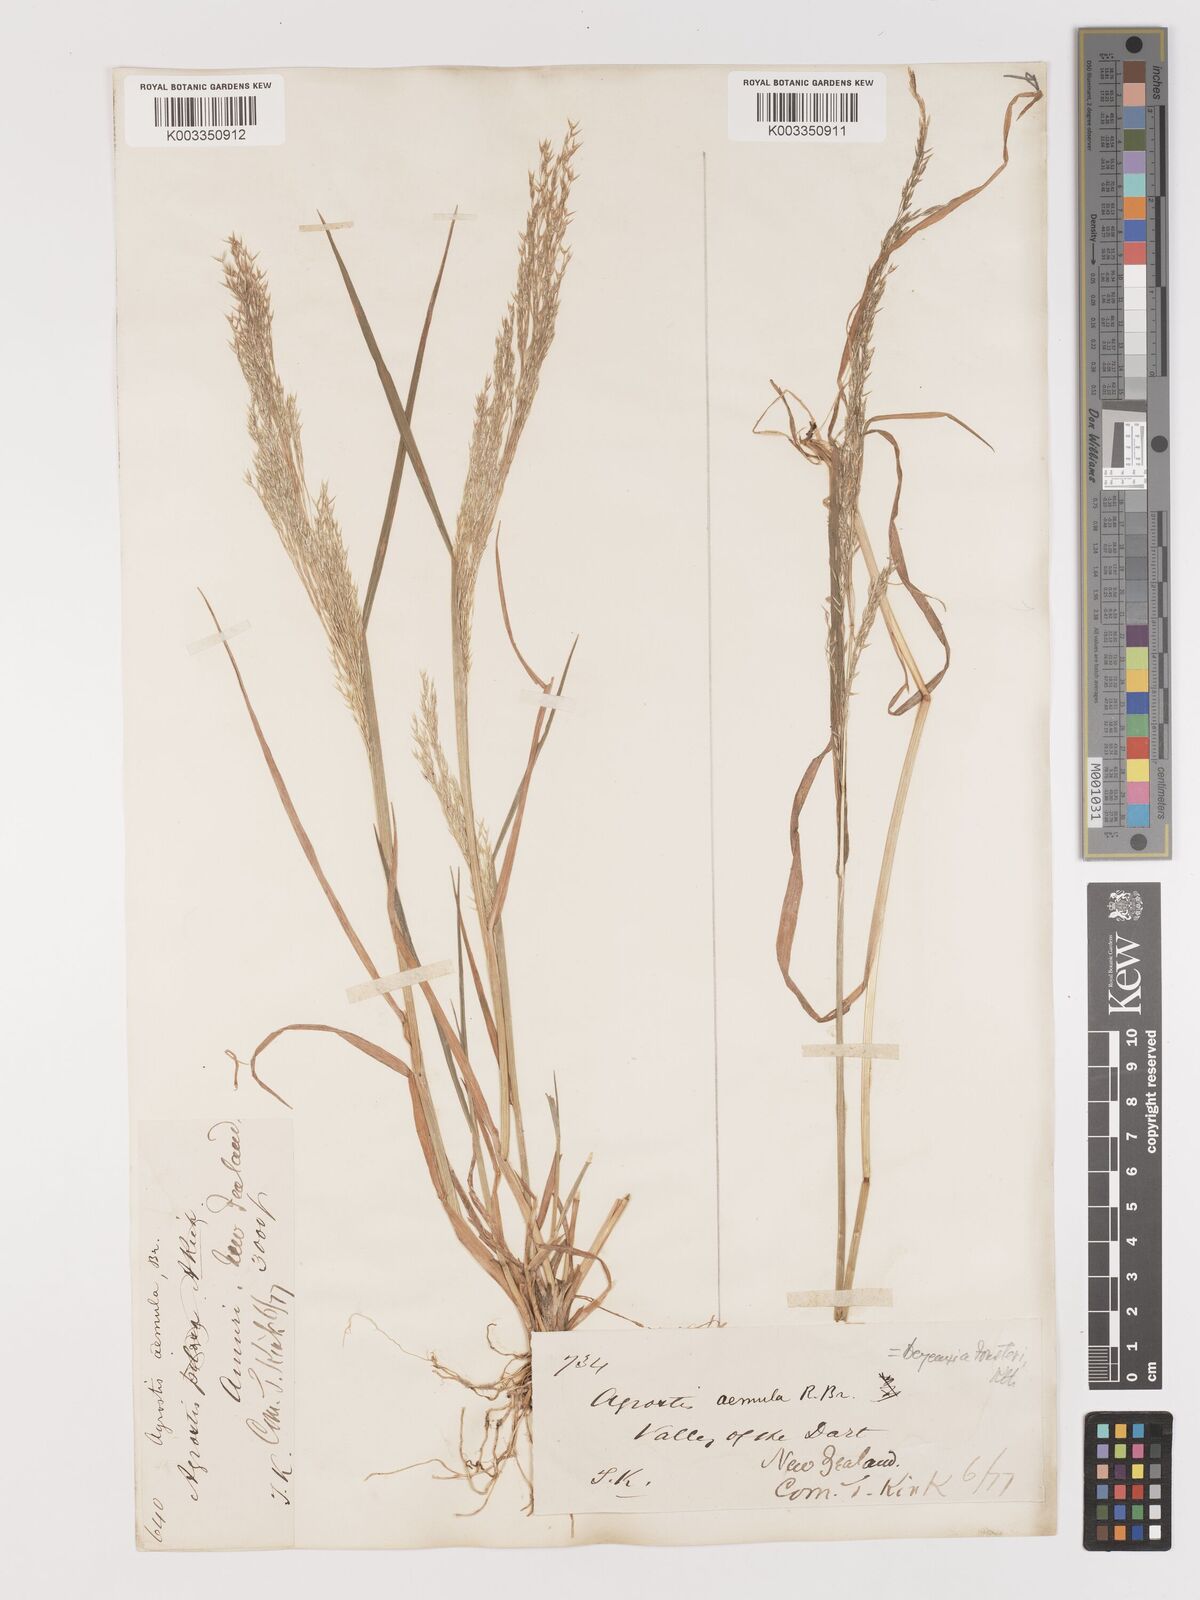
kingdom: Plantae
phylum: Tracheophyta
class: Liliopsida
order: Poales
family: Poaceae
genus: Lachnagrostis
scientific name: Lachnagrostis filiformis
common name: Bentgrass
